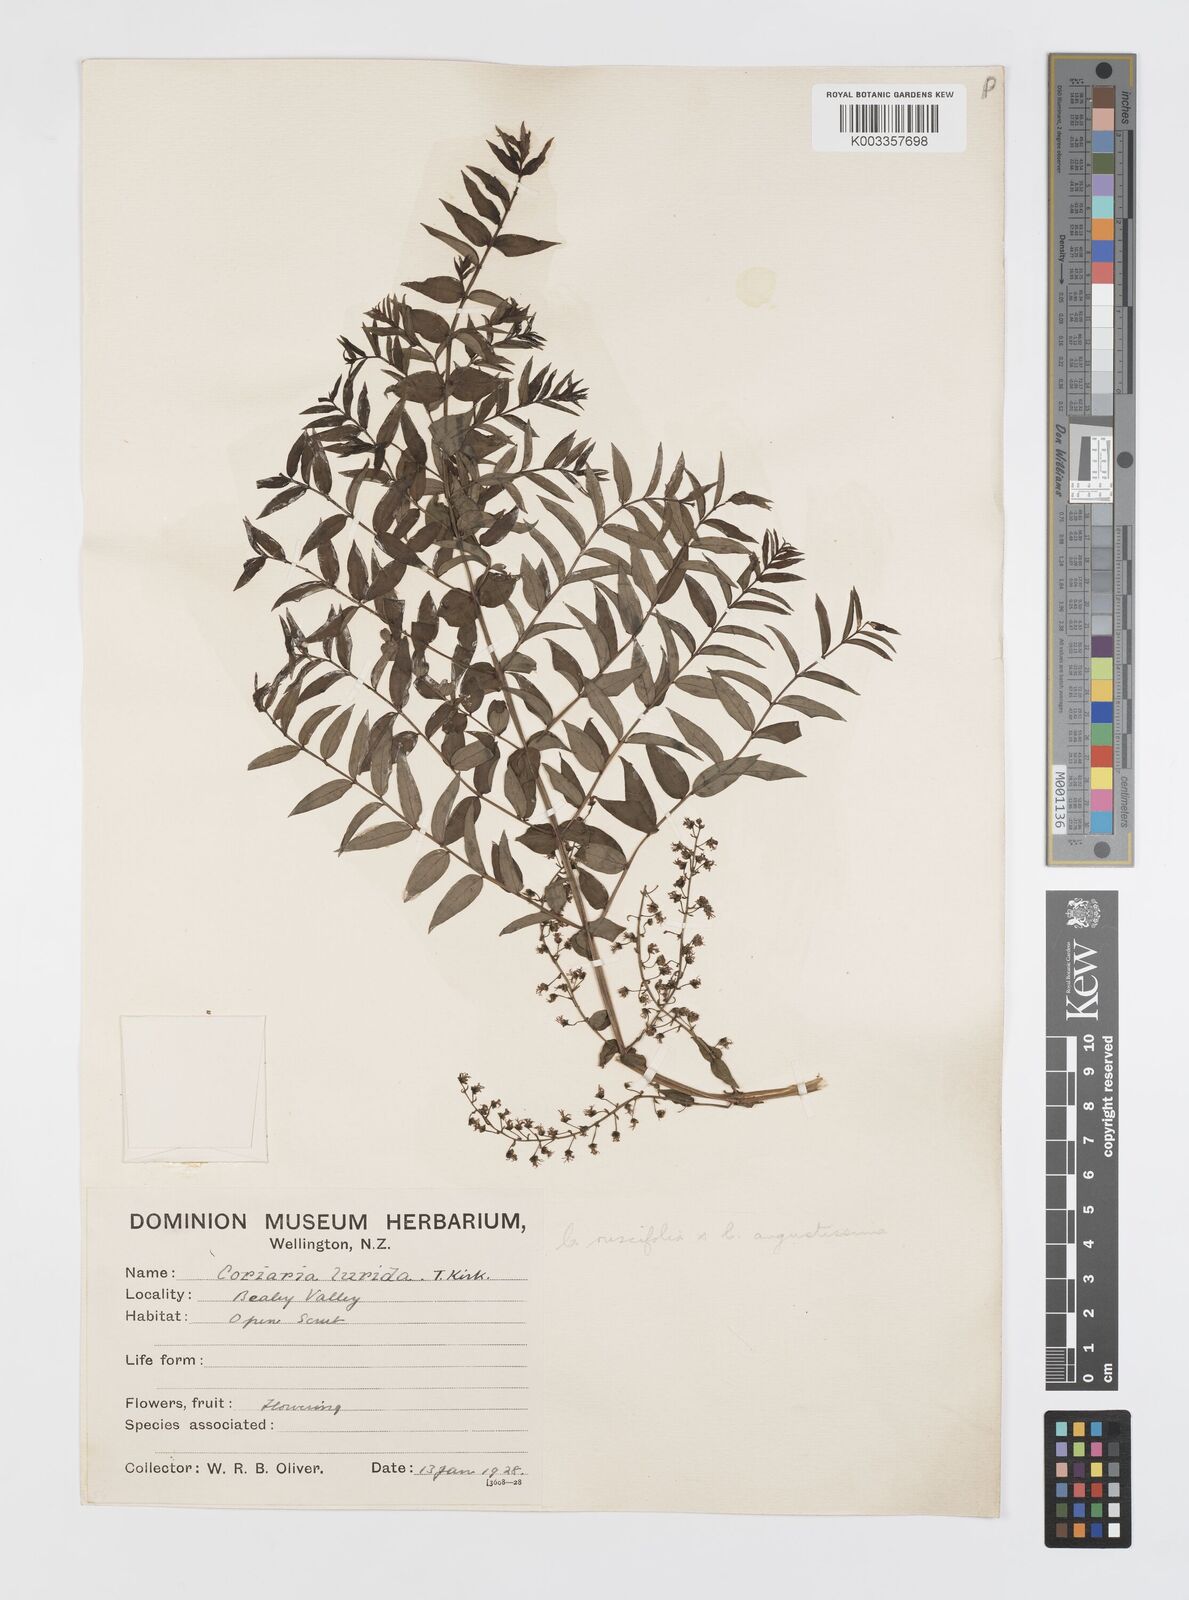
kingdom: Plantae
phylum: Tracheophyta
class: Magnoliopsida
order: Cucurbitales
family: Coriariaceae
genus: Coriaria
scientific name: Coriaria lurida
